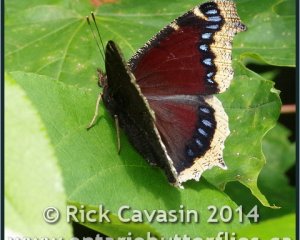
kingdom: Animalia
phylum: Arthropoda
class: Insecta
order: Lepidoptera
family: Nymphalidae
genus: Nymphalis
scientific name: Nymphalis antiopa
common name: Mourning Cloak
